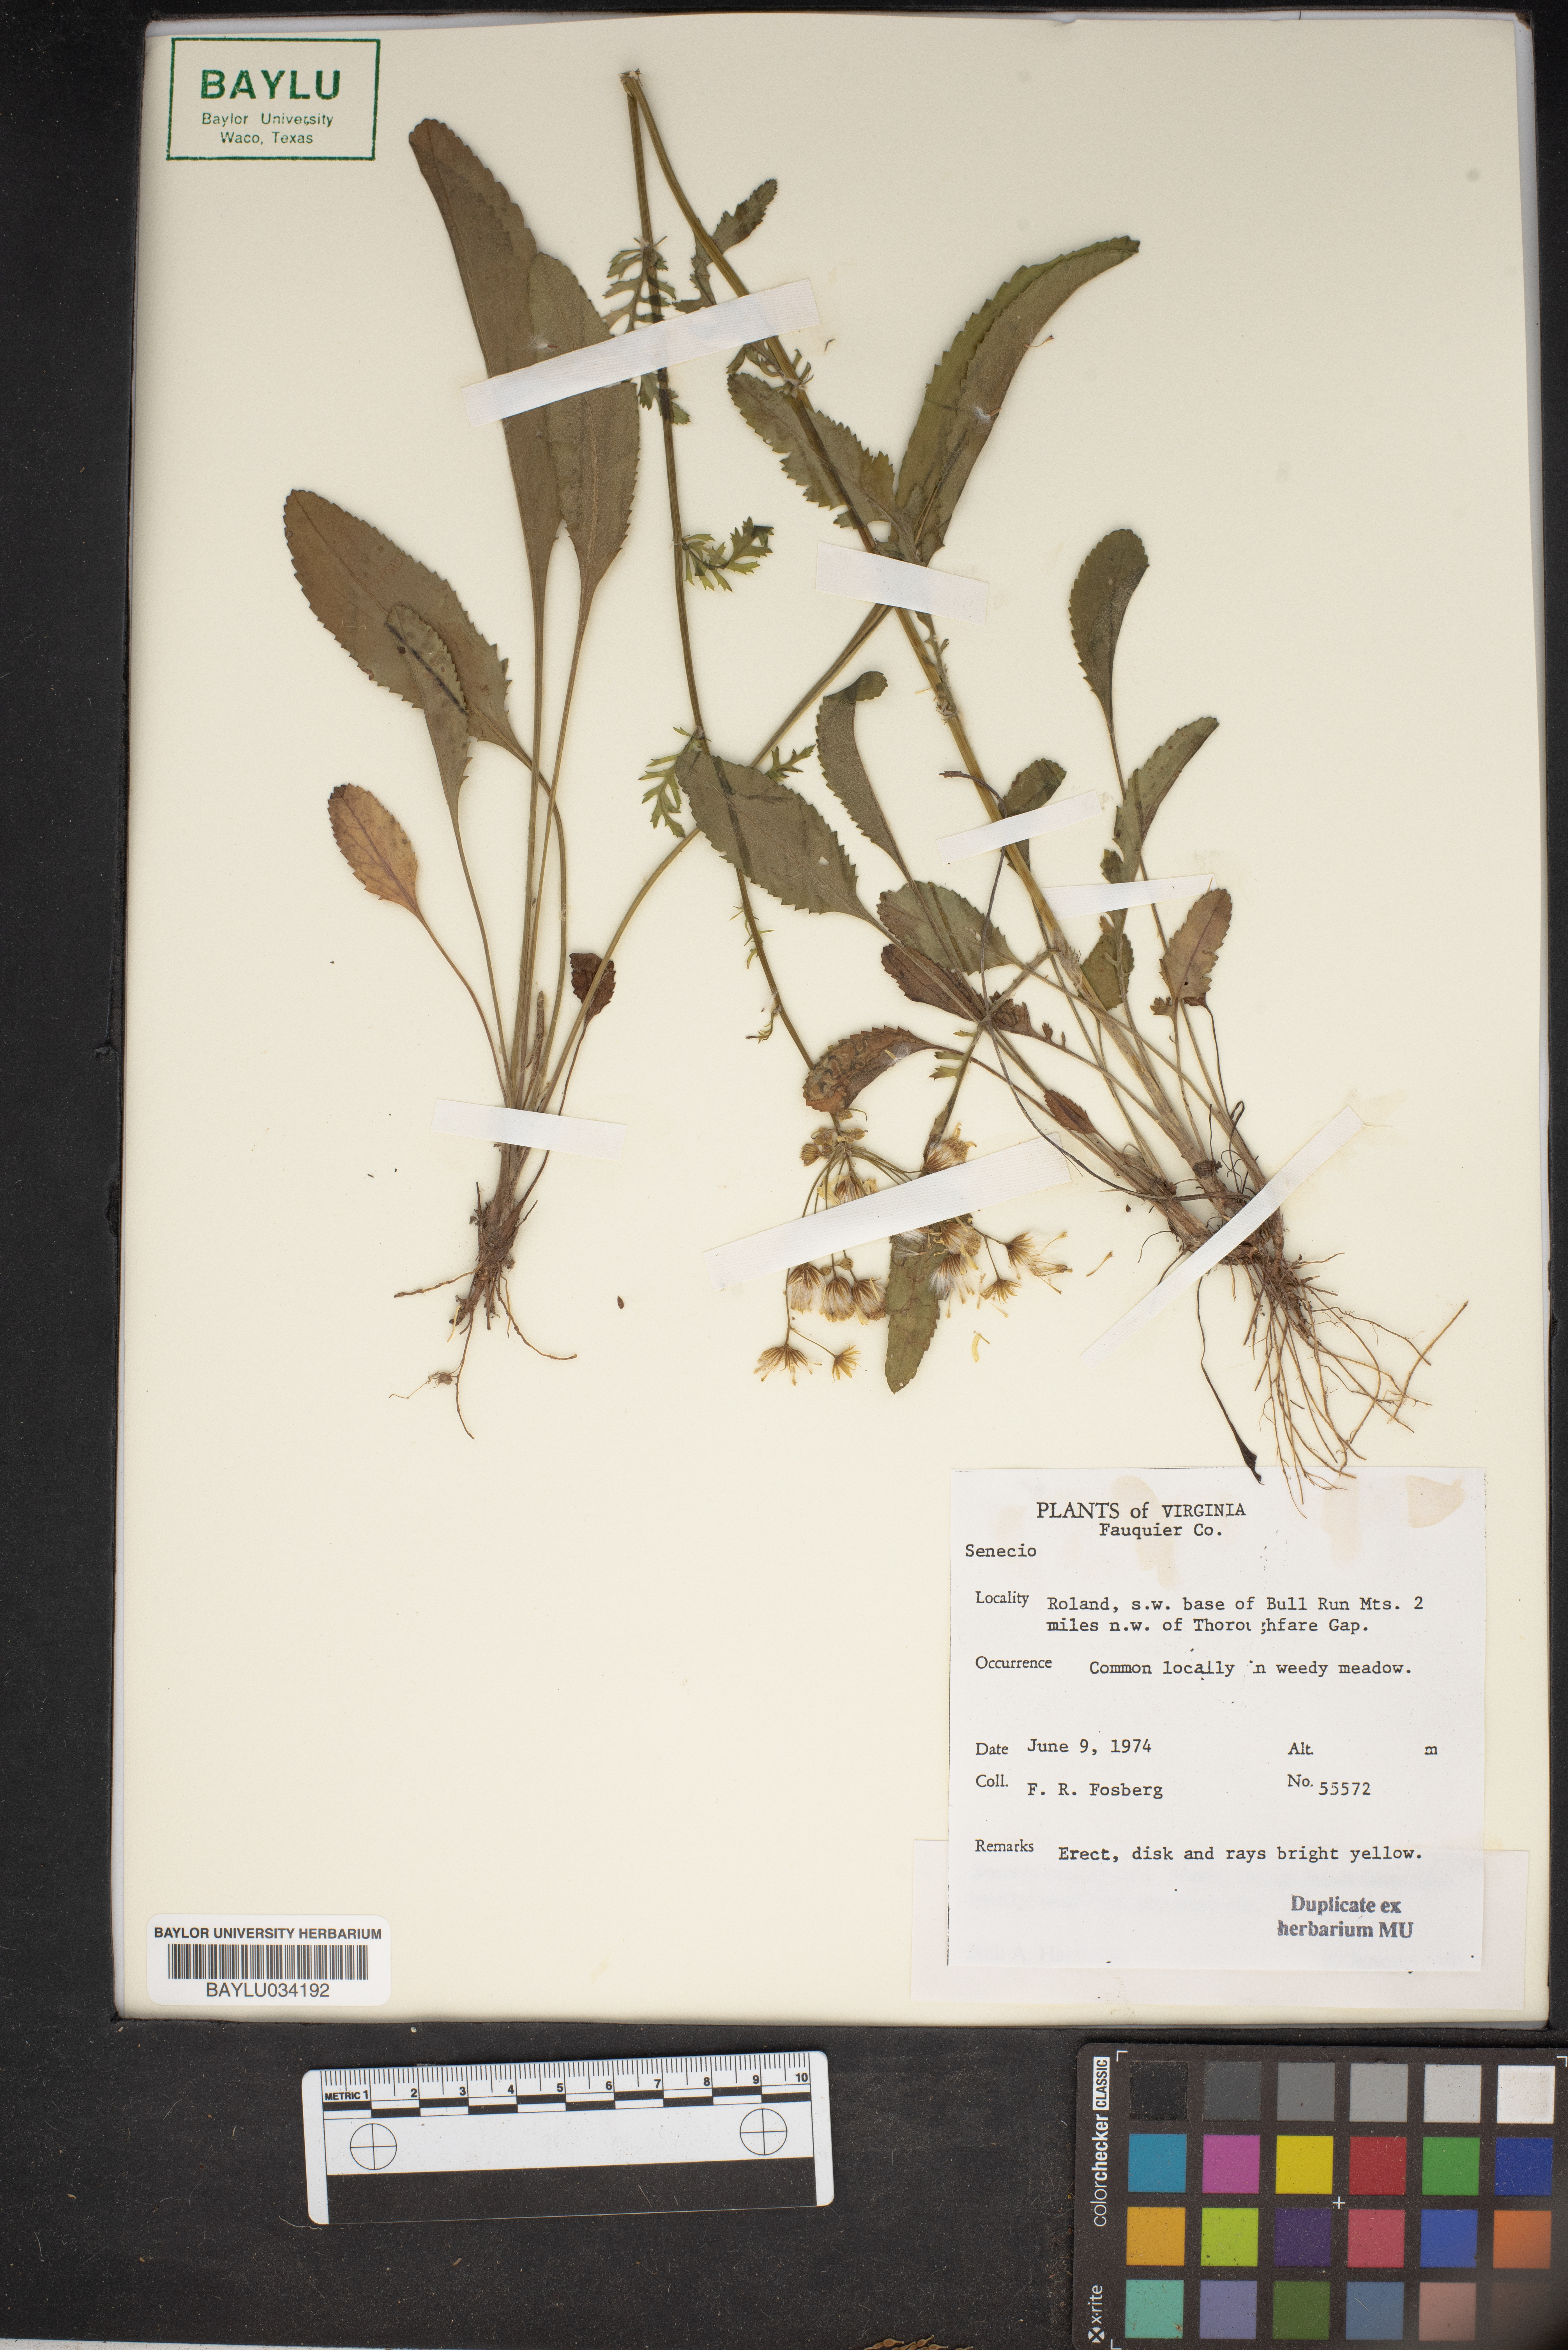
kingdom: Plantae
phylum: Tracheophyta
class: Magnoliopsida
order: Asterales
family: Asteraceae
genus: Senecio
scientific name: Senecio
